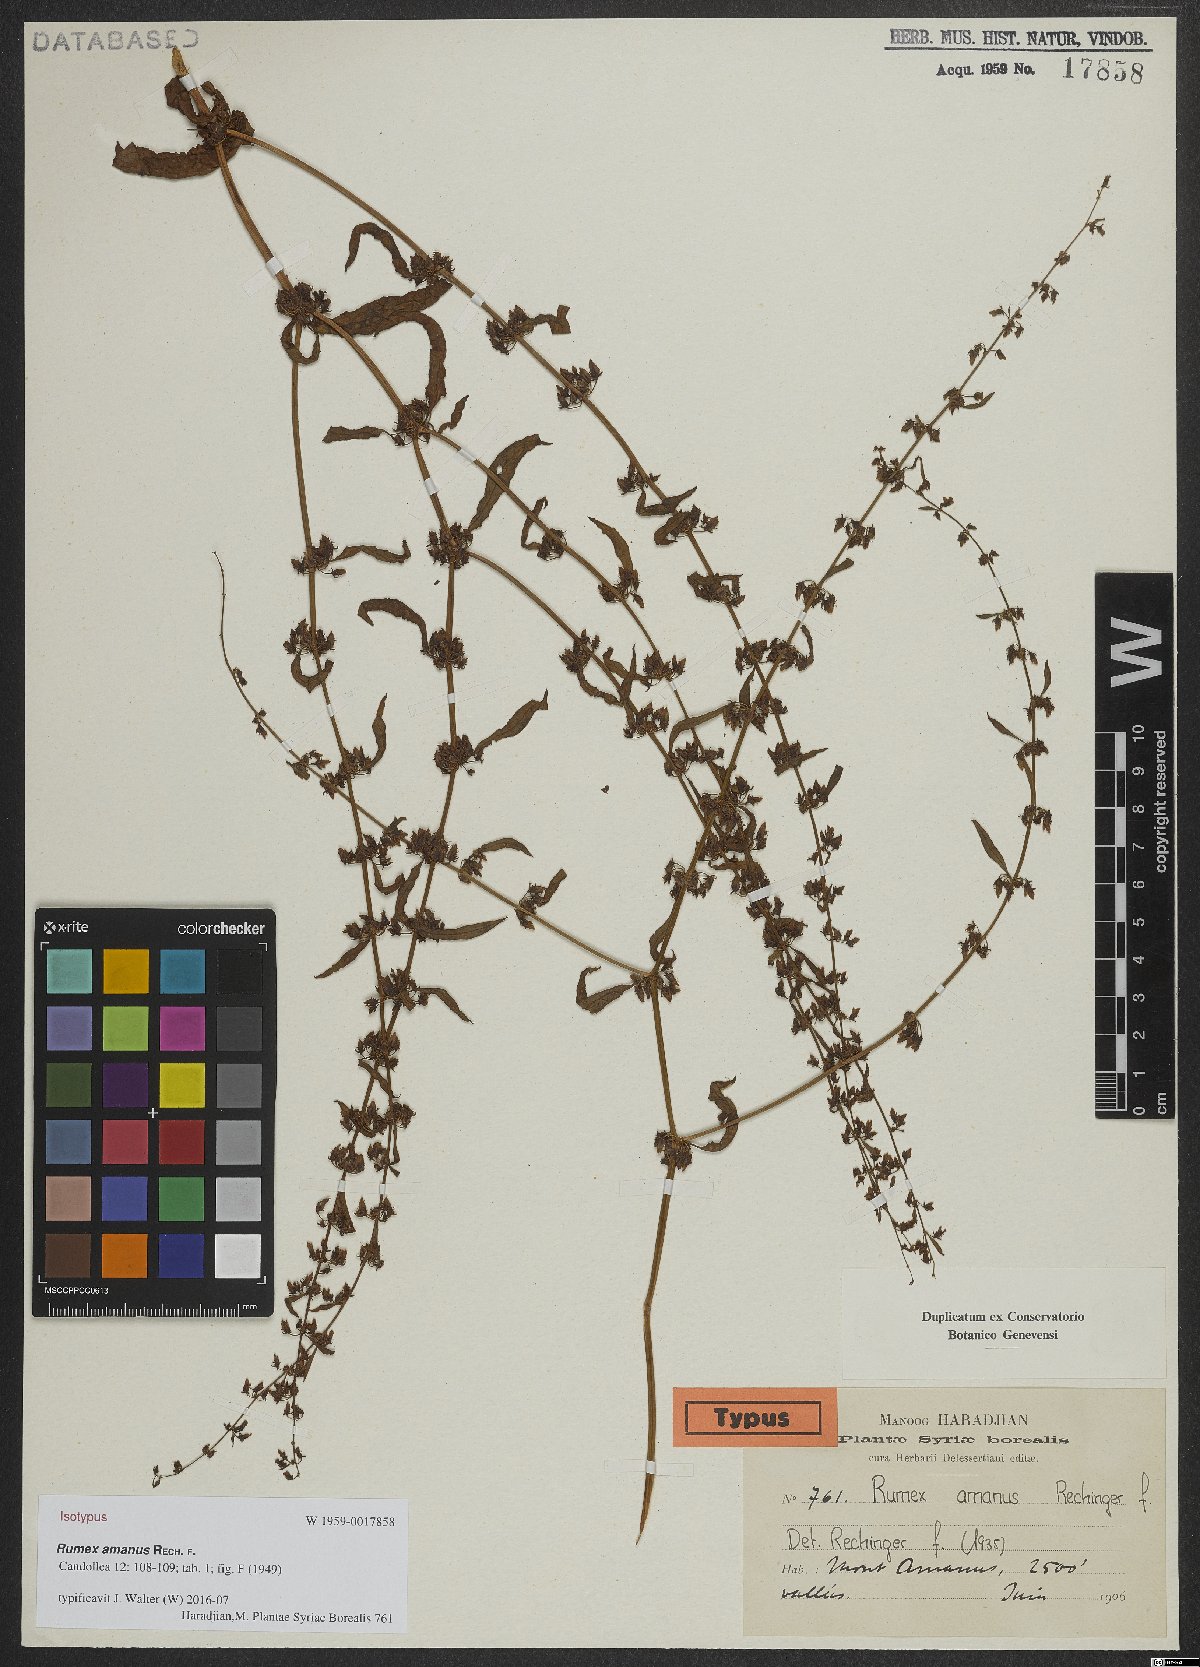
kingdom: Plantae
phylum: Tracheophyta
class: Magnoliopsida
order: Caryophyllales
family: Polygonaceae
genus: Rumex
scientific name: Rumex amanus
